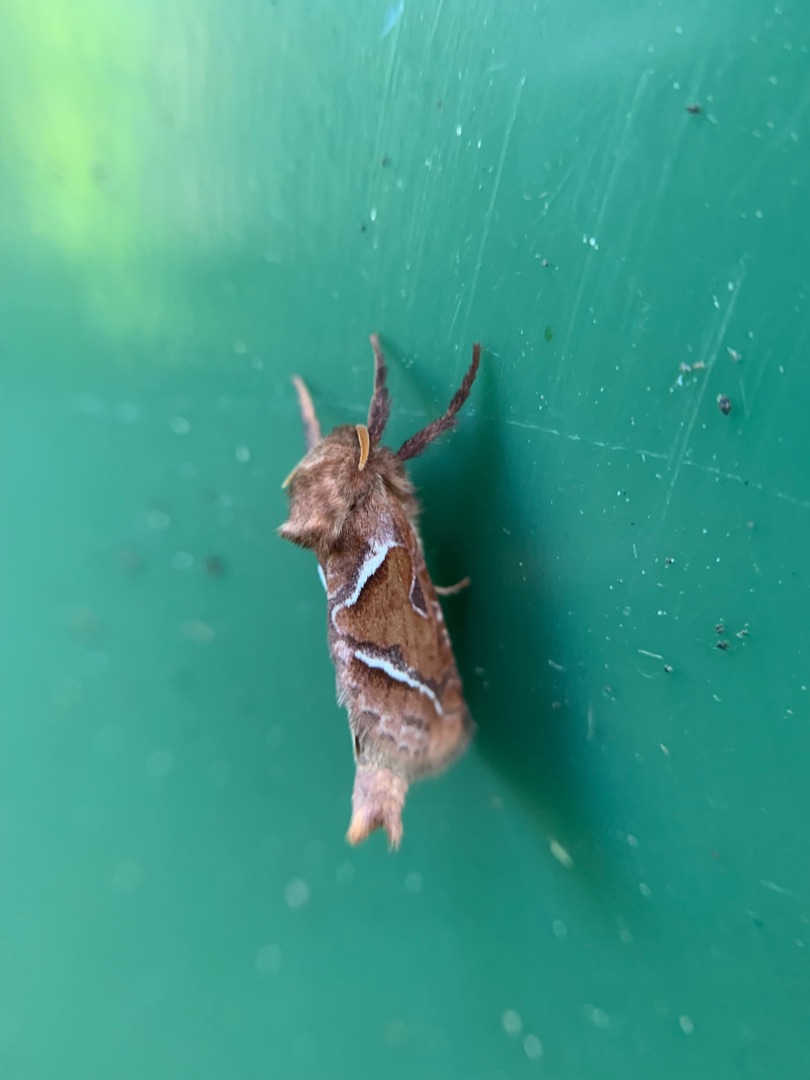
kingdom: Animalia
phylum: Arthropoda
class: Insecta
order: Lepidoptera
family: Hepialidae
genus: Triodia
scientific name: Triodia sylvina
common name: Skræpperodæder
